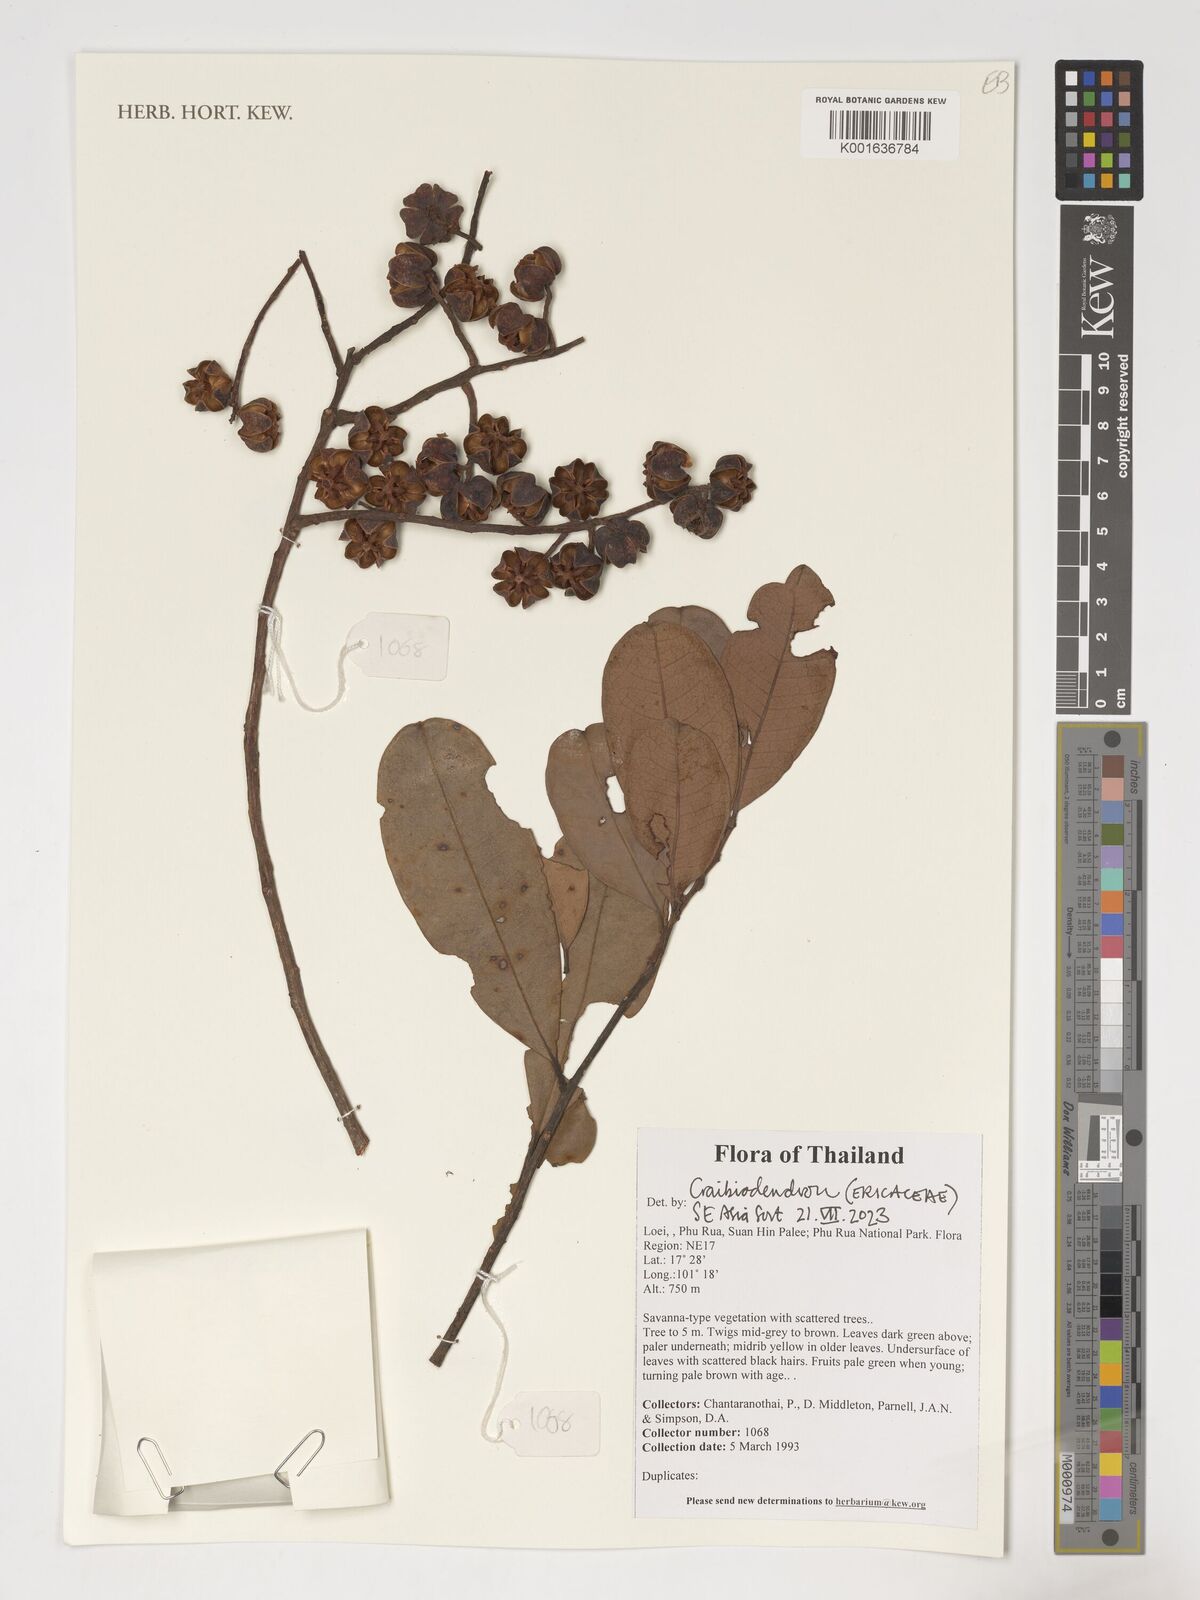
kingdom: Plantae
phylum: Tracheophyta
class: Magnoliopsida
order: Ericales
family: Ericaceae
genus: Craibiodendron
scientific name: Craibiodendron
